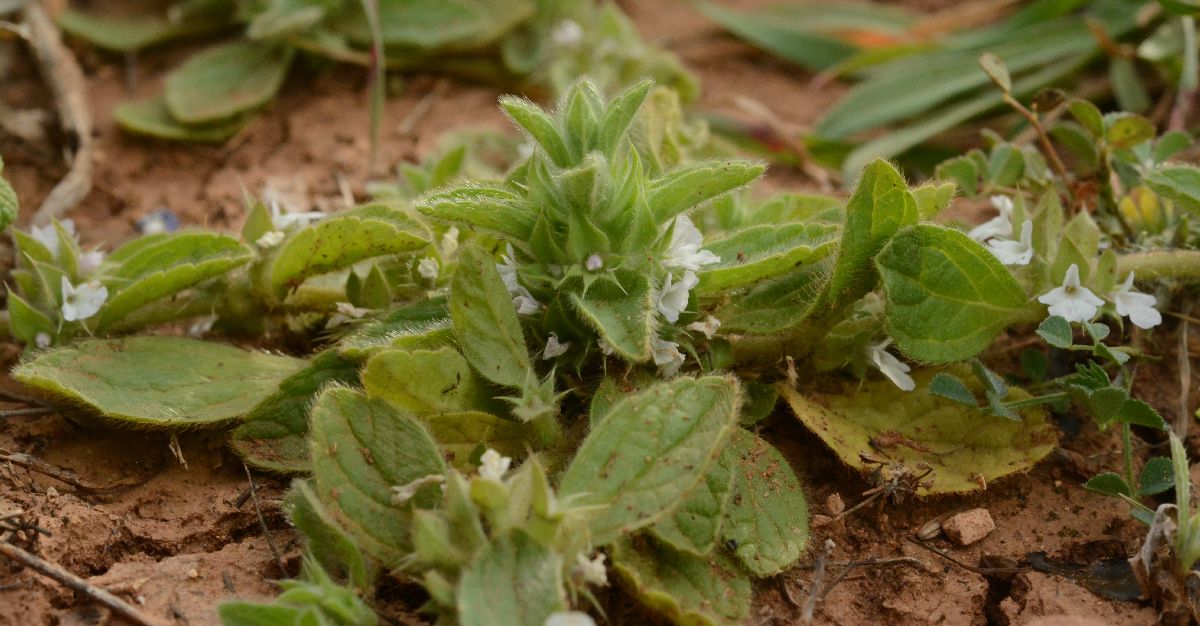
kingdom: Plantae
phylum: Tracheophyta
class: Magnoliopsida
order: Lamiales
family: Lamiaceae
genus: Sideritis
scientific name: Sideritis romana
